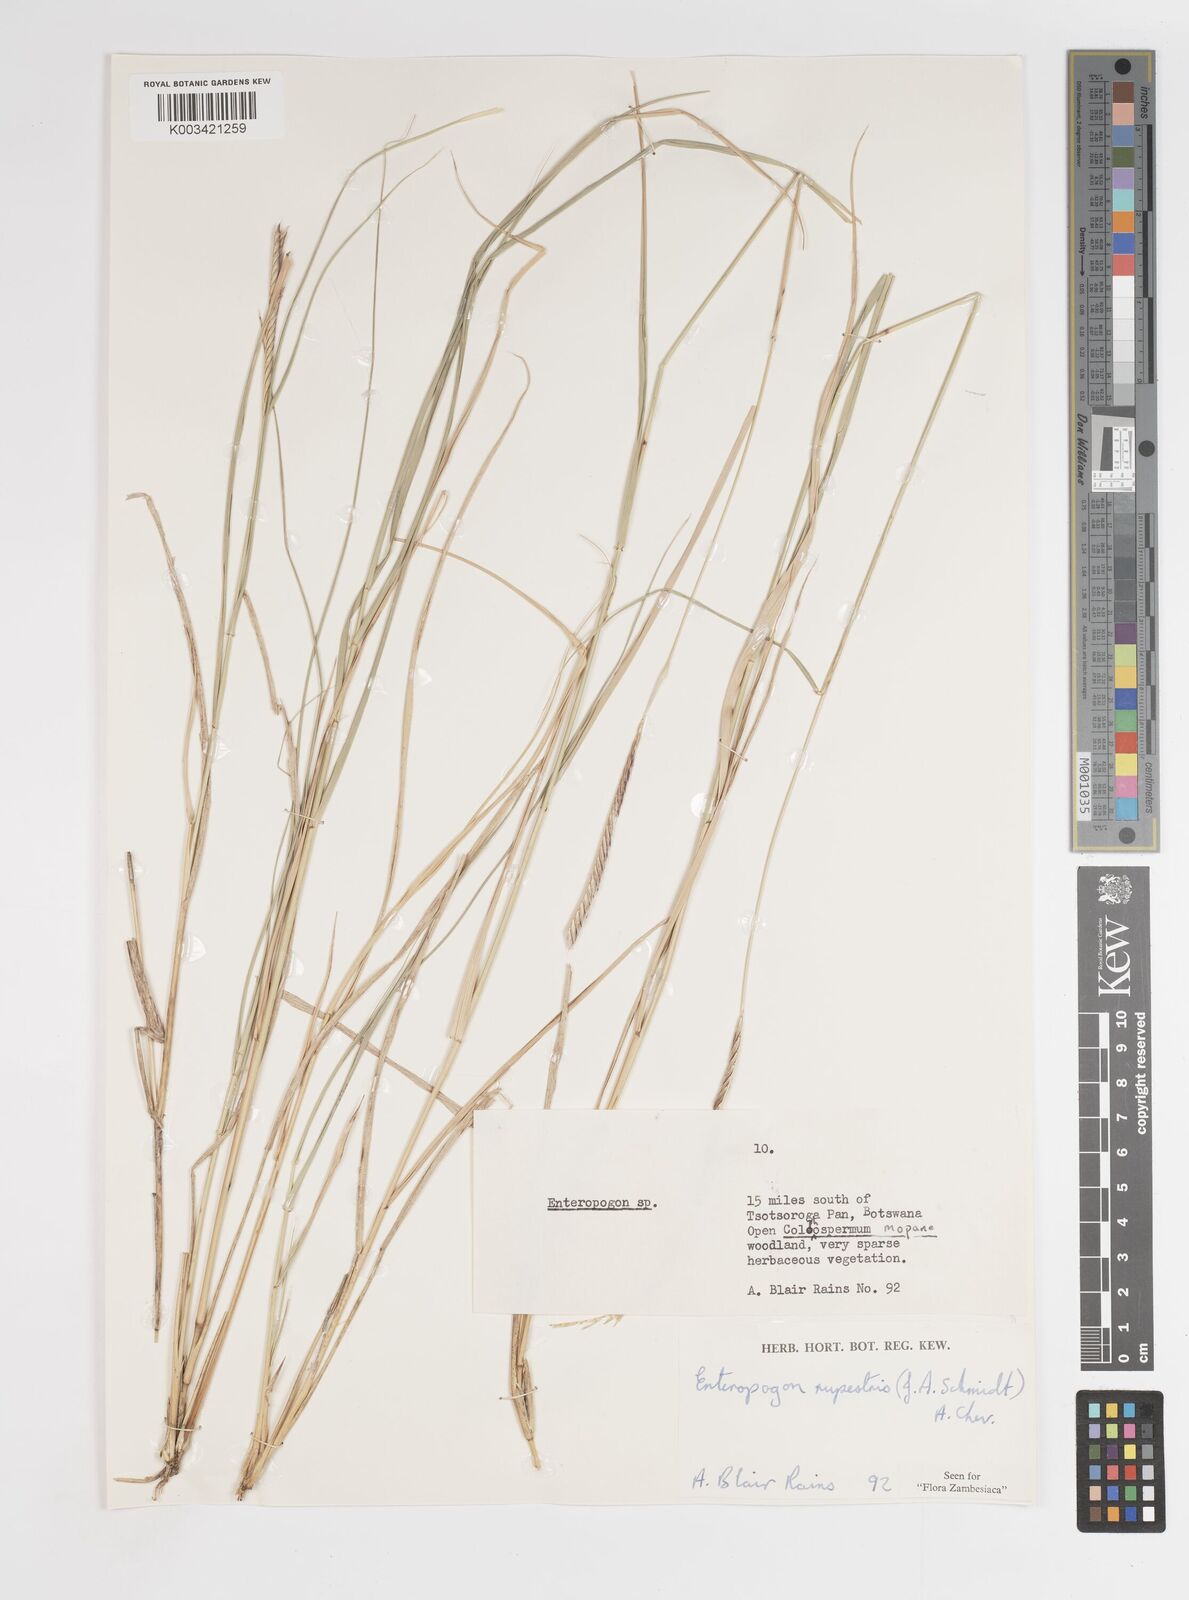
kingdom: Plantae
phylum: Tracheophyta
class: Liliopsida
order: Poales
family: Poaceae
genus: Enteropogon
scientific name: Enteropogon rupestris
